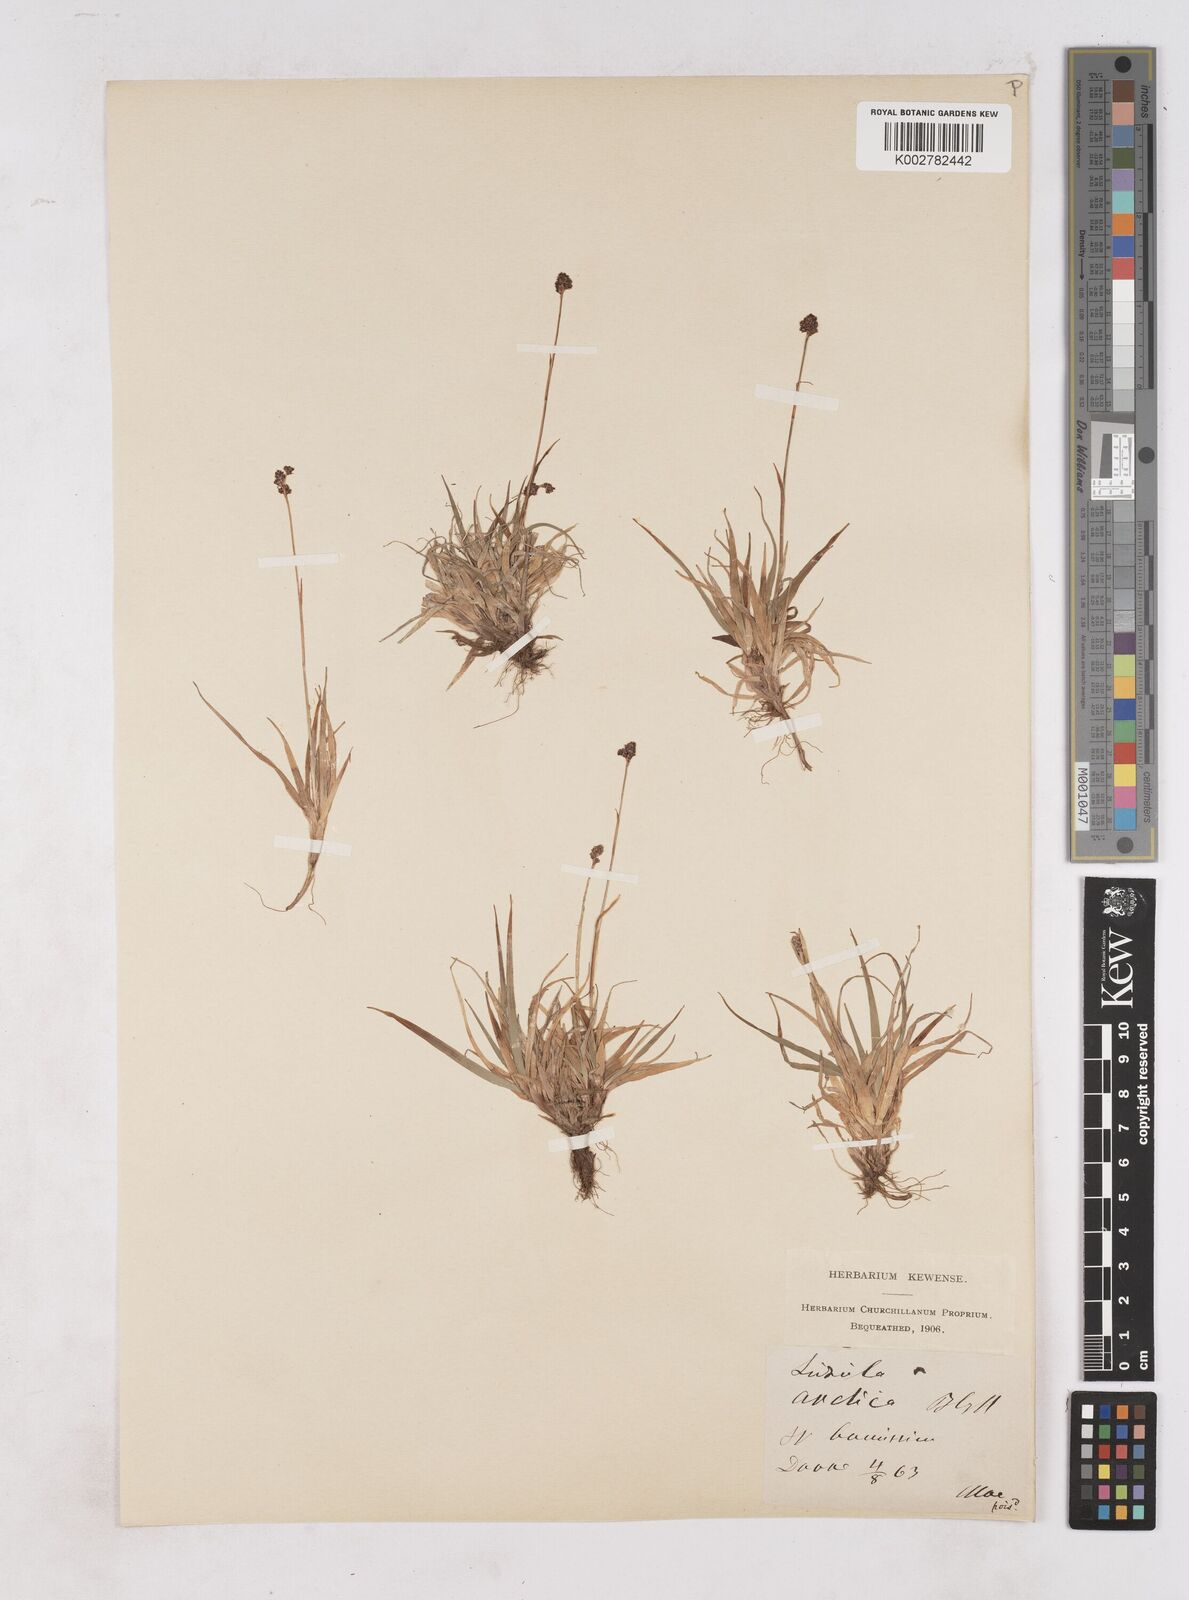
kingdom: Plantae
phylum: Tracheophyta
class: Liliopsida
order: Poales
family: Juncaceae
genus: Luzula
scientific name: Luzula nivalis
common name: Arctic woodrush
